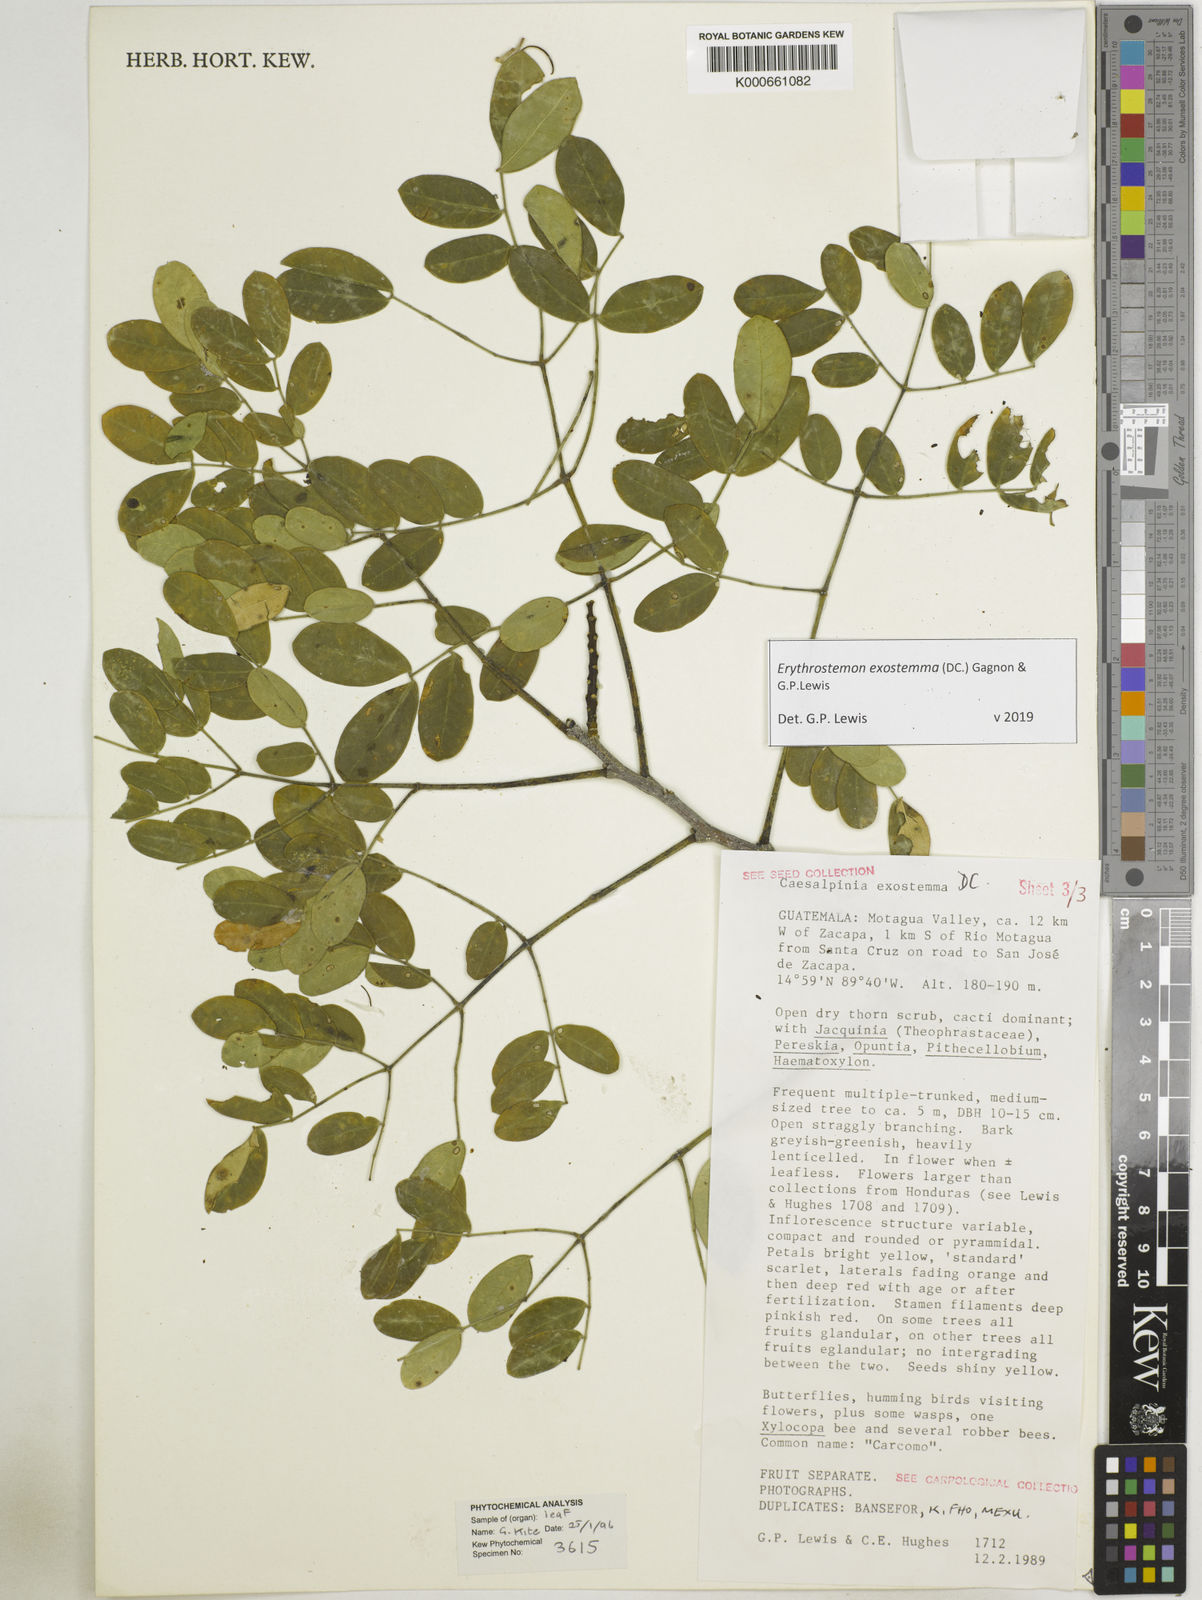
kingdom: Plantae
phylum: Tracheophyta
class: Magnoliopsida
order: Fabales
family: Fabaceae
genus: Erythrostemon
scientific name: Erythrostemon exostemma
